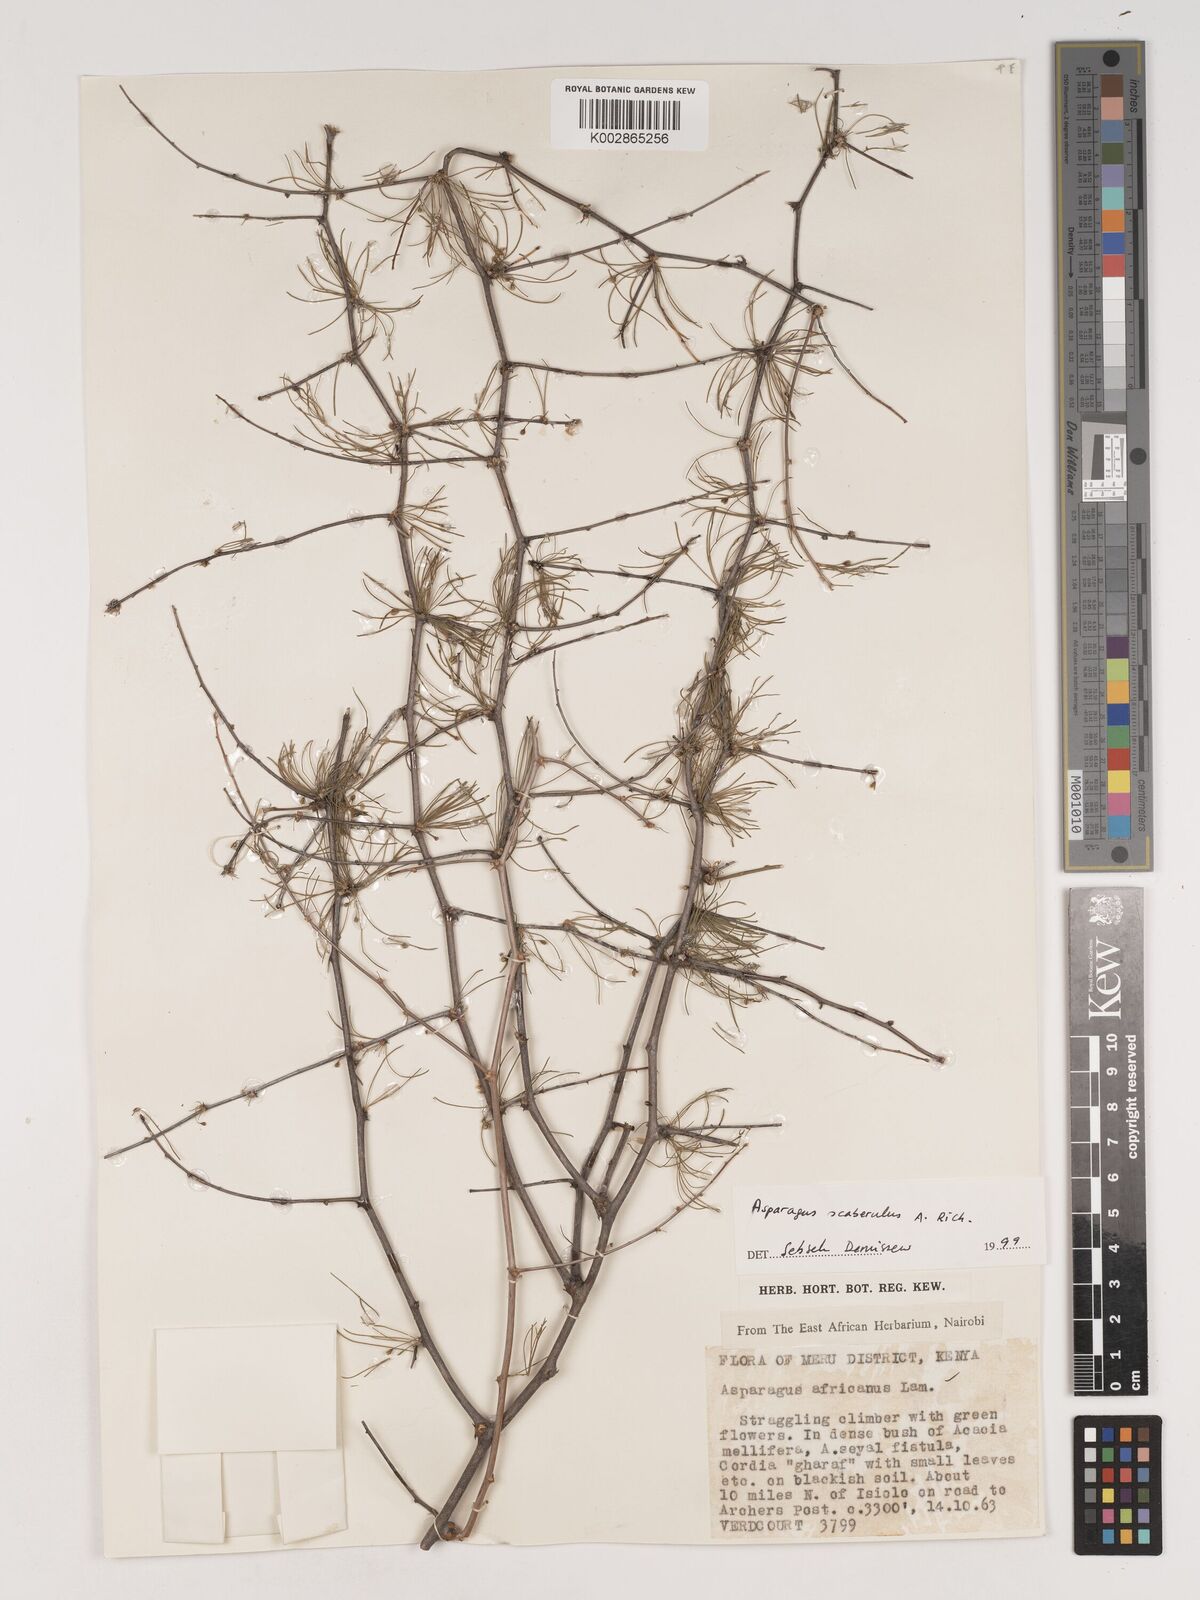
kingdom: Plantae
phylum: Tracheophyta
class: Liliopsida
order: Asparagales
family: Asparagaceae
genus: Asparagus
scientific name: Asparagus scaberulus
